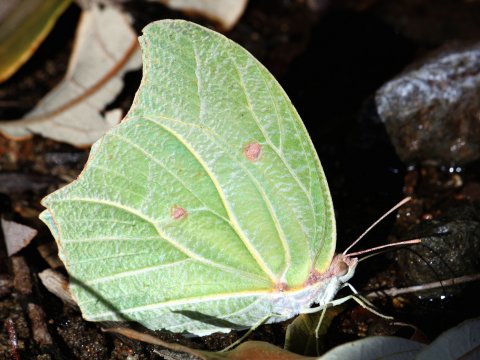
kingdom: Animalia
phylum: Arthropoda
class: Insecta
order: Lepidoptera
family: Pieridae
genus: Anteos
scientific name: Anteos clorinde
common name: White Angled-Sulphur
